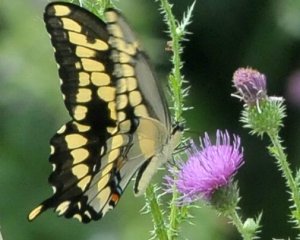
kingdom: Animalia
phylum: Arthropoda
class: Insecta
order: Lepidoptera
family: Papilionidae
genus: Papilio
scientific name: Papilio cresphontes
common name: Eastern Giant Swallowtail
